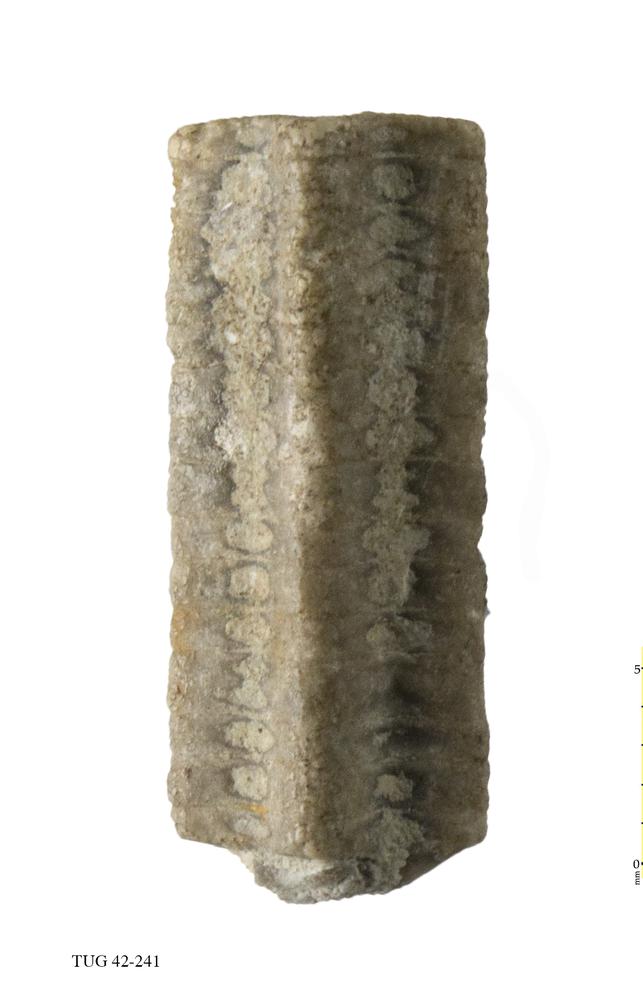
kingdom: Animalia
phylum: Echinodermata
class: Crinoidea
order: Isocrinida
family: Pentacrinitidae
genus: Pentacrinites
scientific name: Pentacrinites
